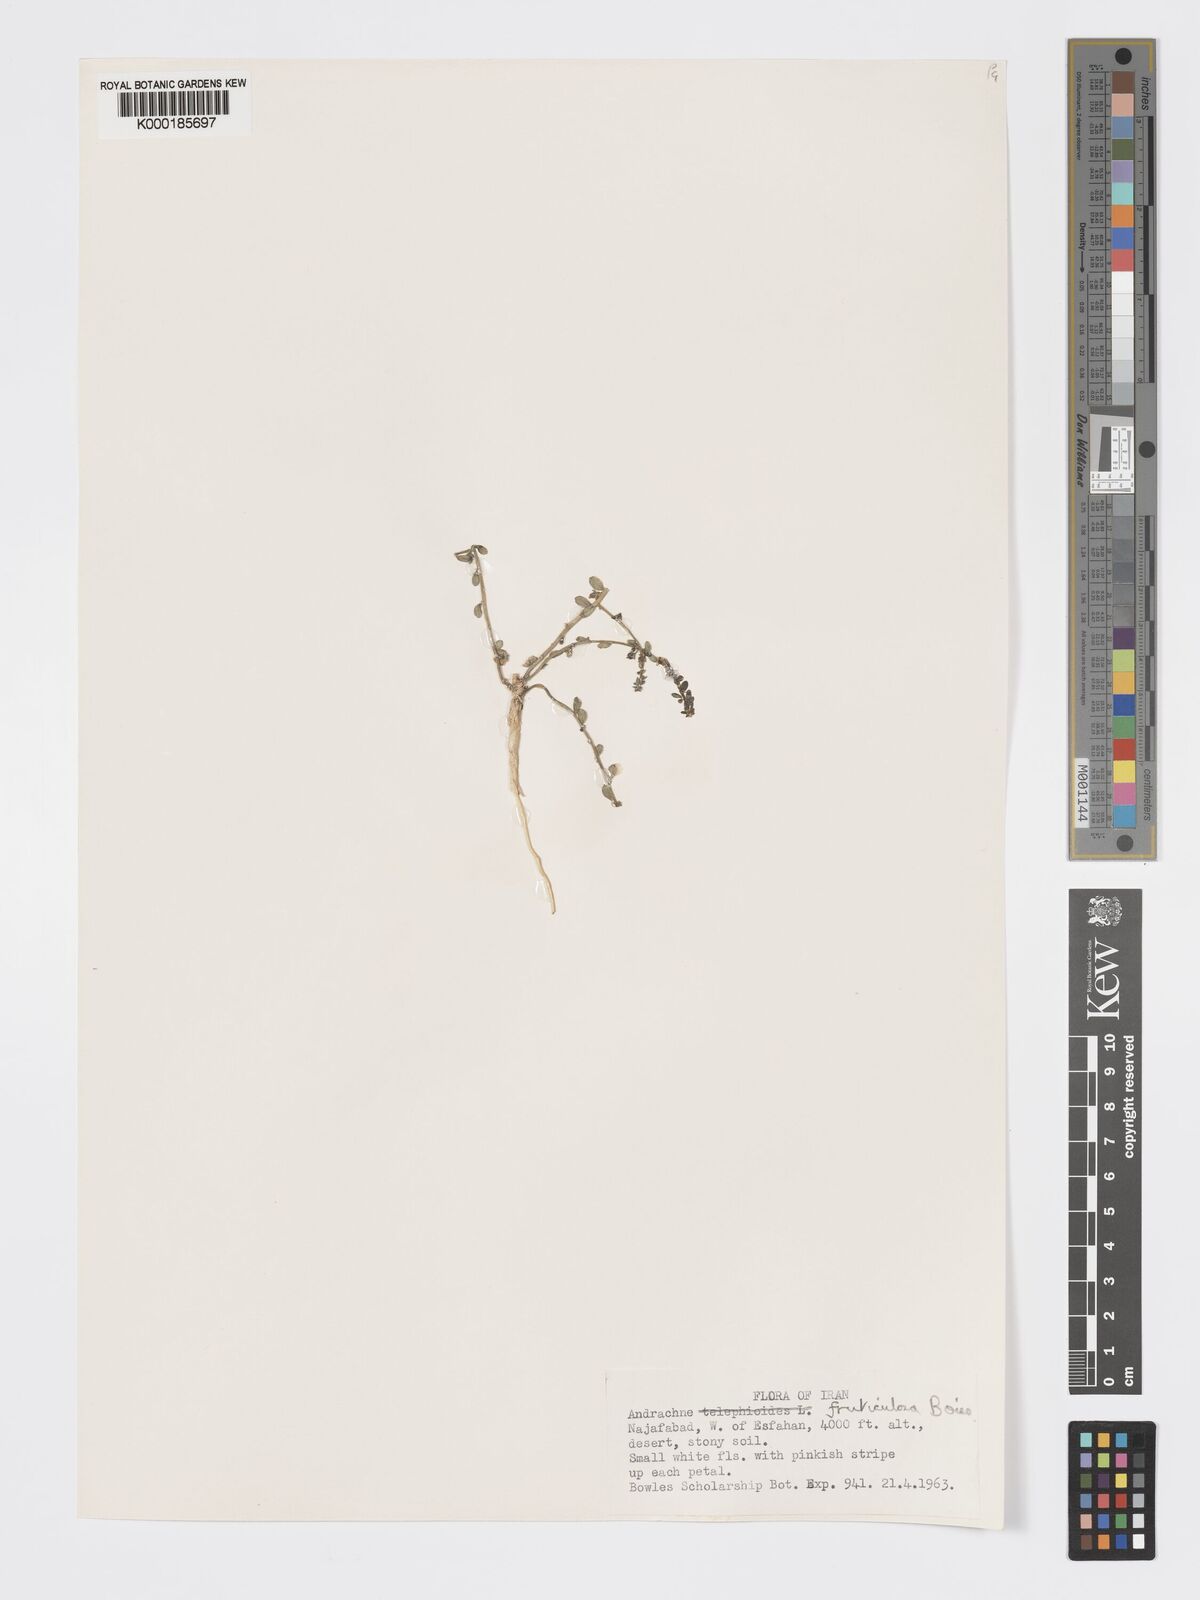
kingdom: Plantae
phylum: Tracheophyta
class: Magnoliopsida
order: Malpighiales
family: Phyllanthaceae
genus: Andrachne
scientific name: Andrachne fruticulosa
